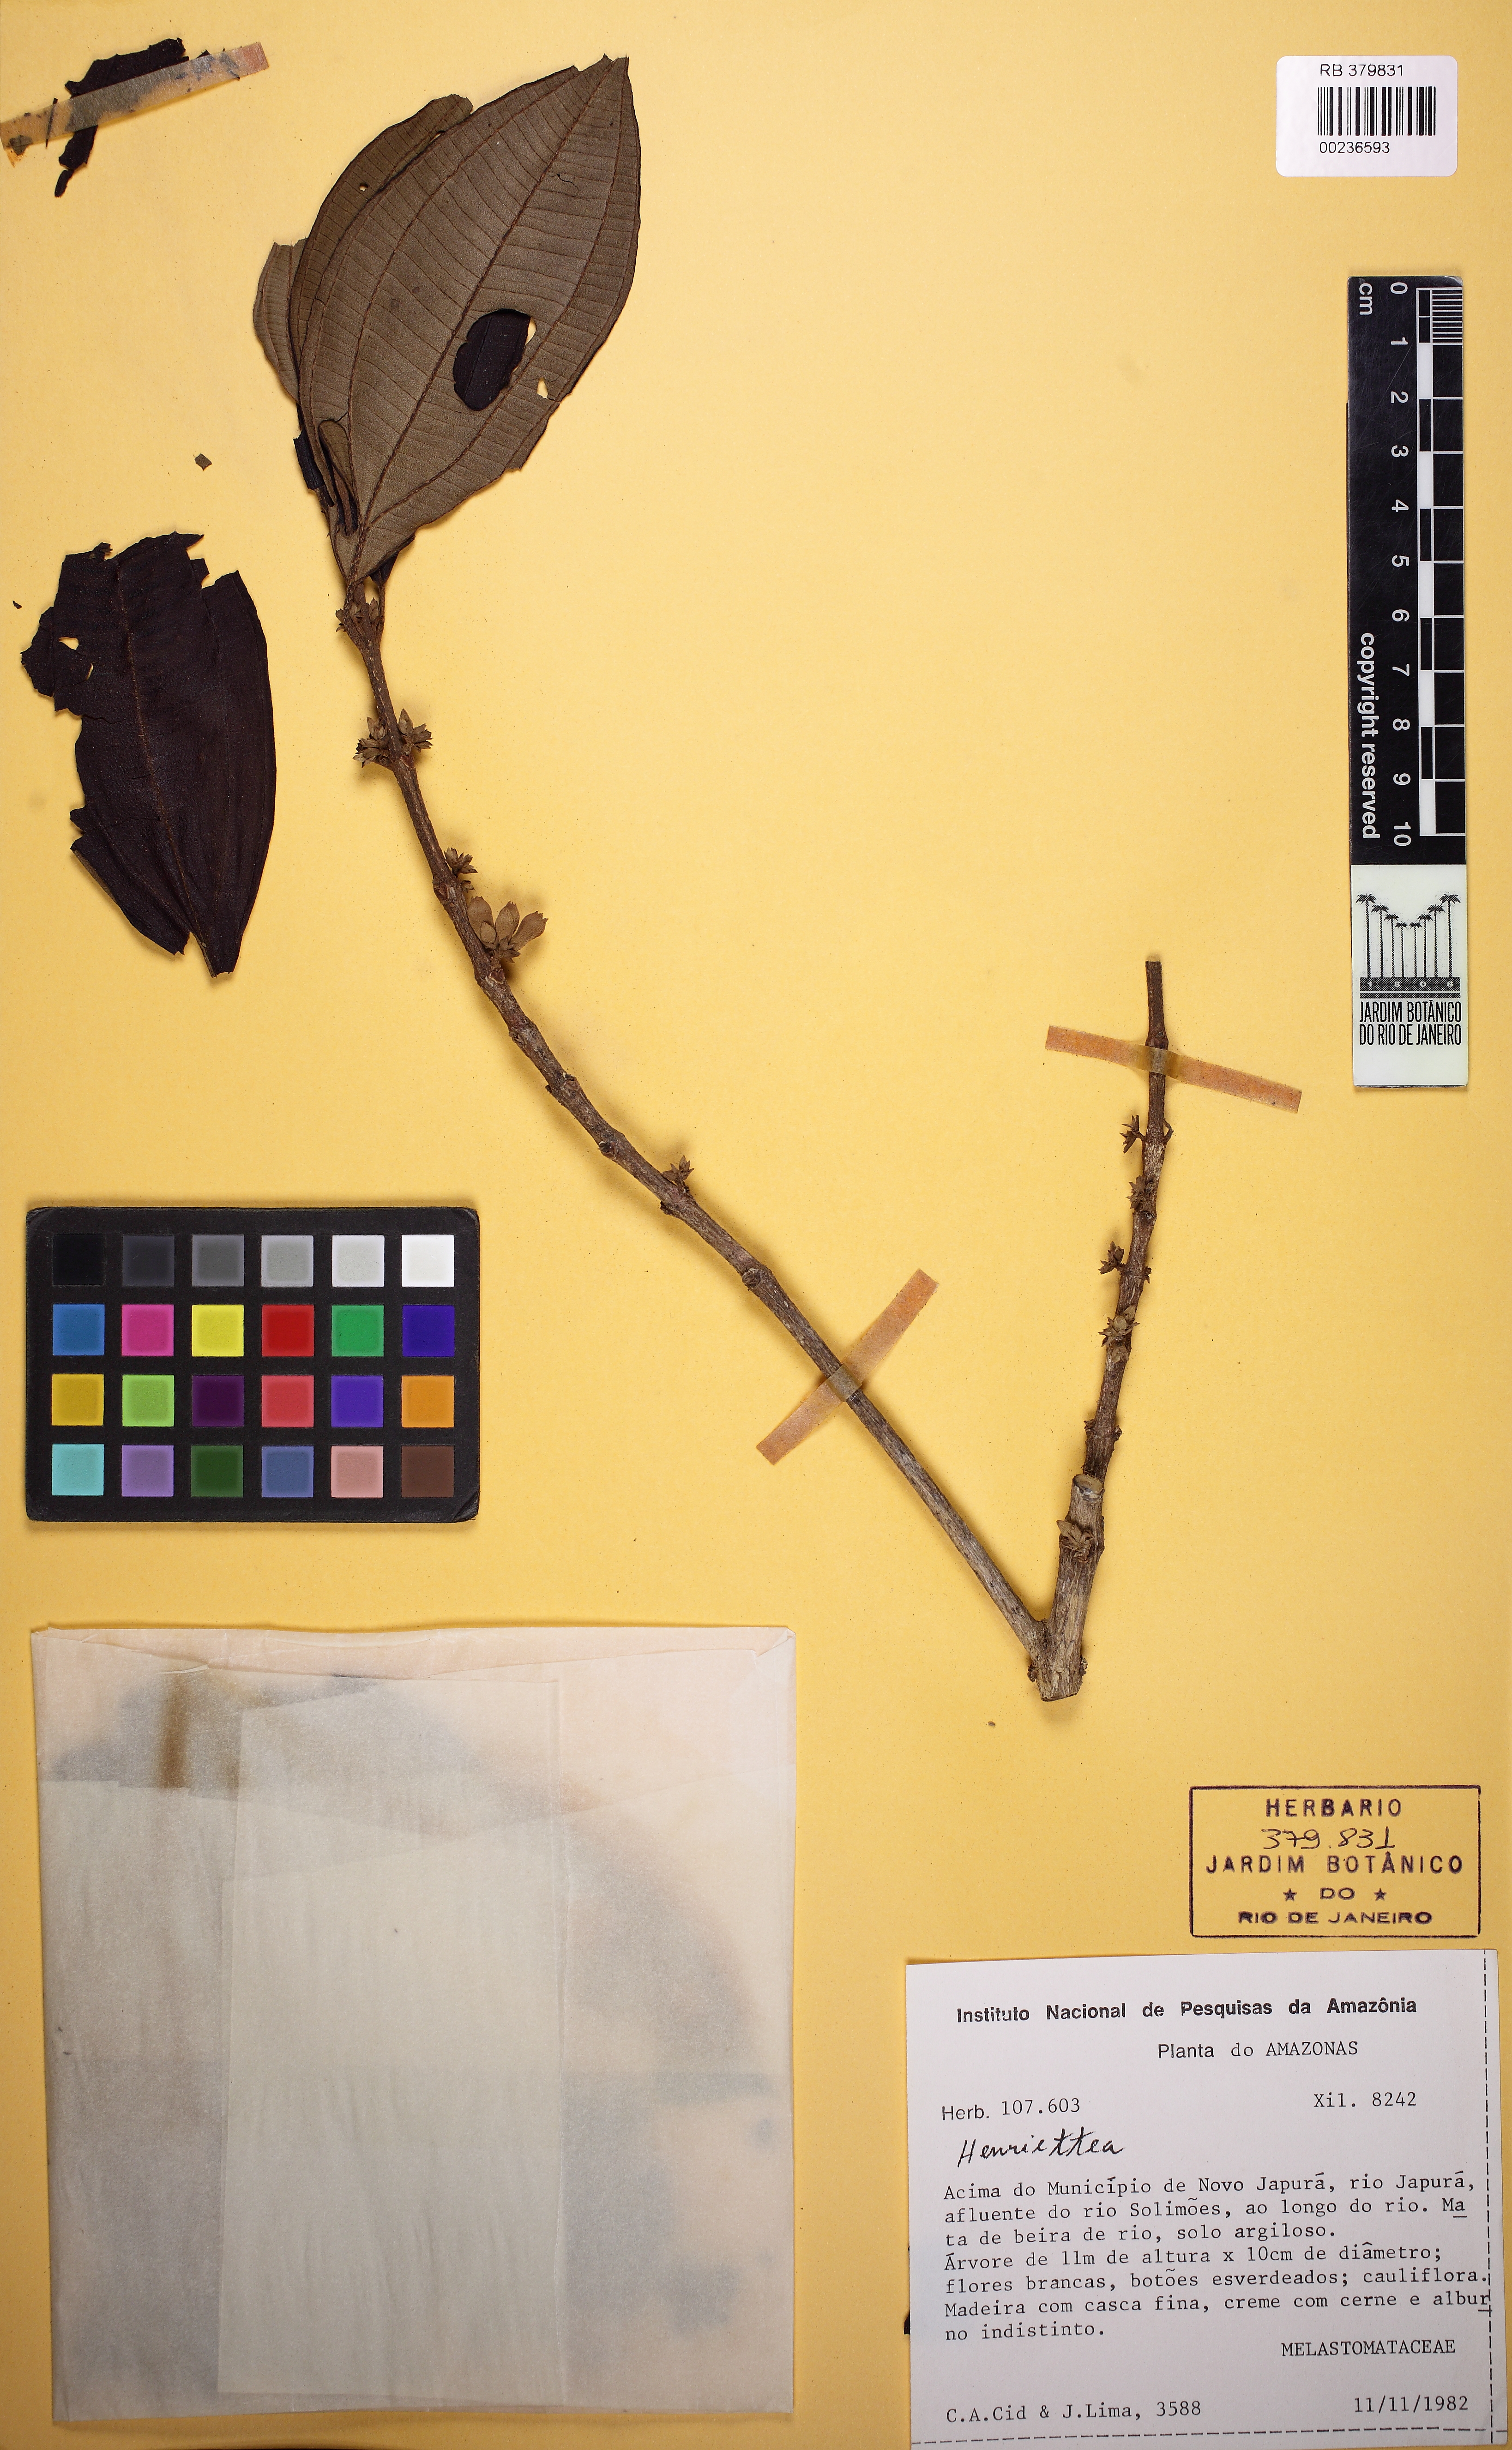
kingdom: Plantae
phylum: Tracheophyta
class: Magnoliopsida
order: Myrtales
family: Melastomataceae
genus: Henriettea
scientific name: Henriettea stellaris
